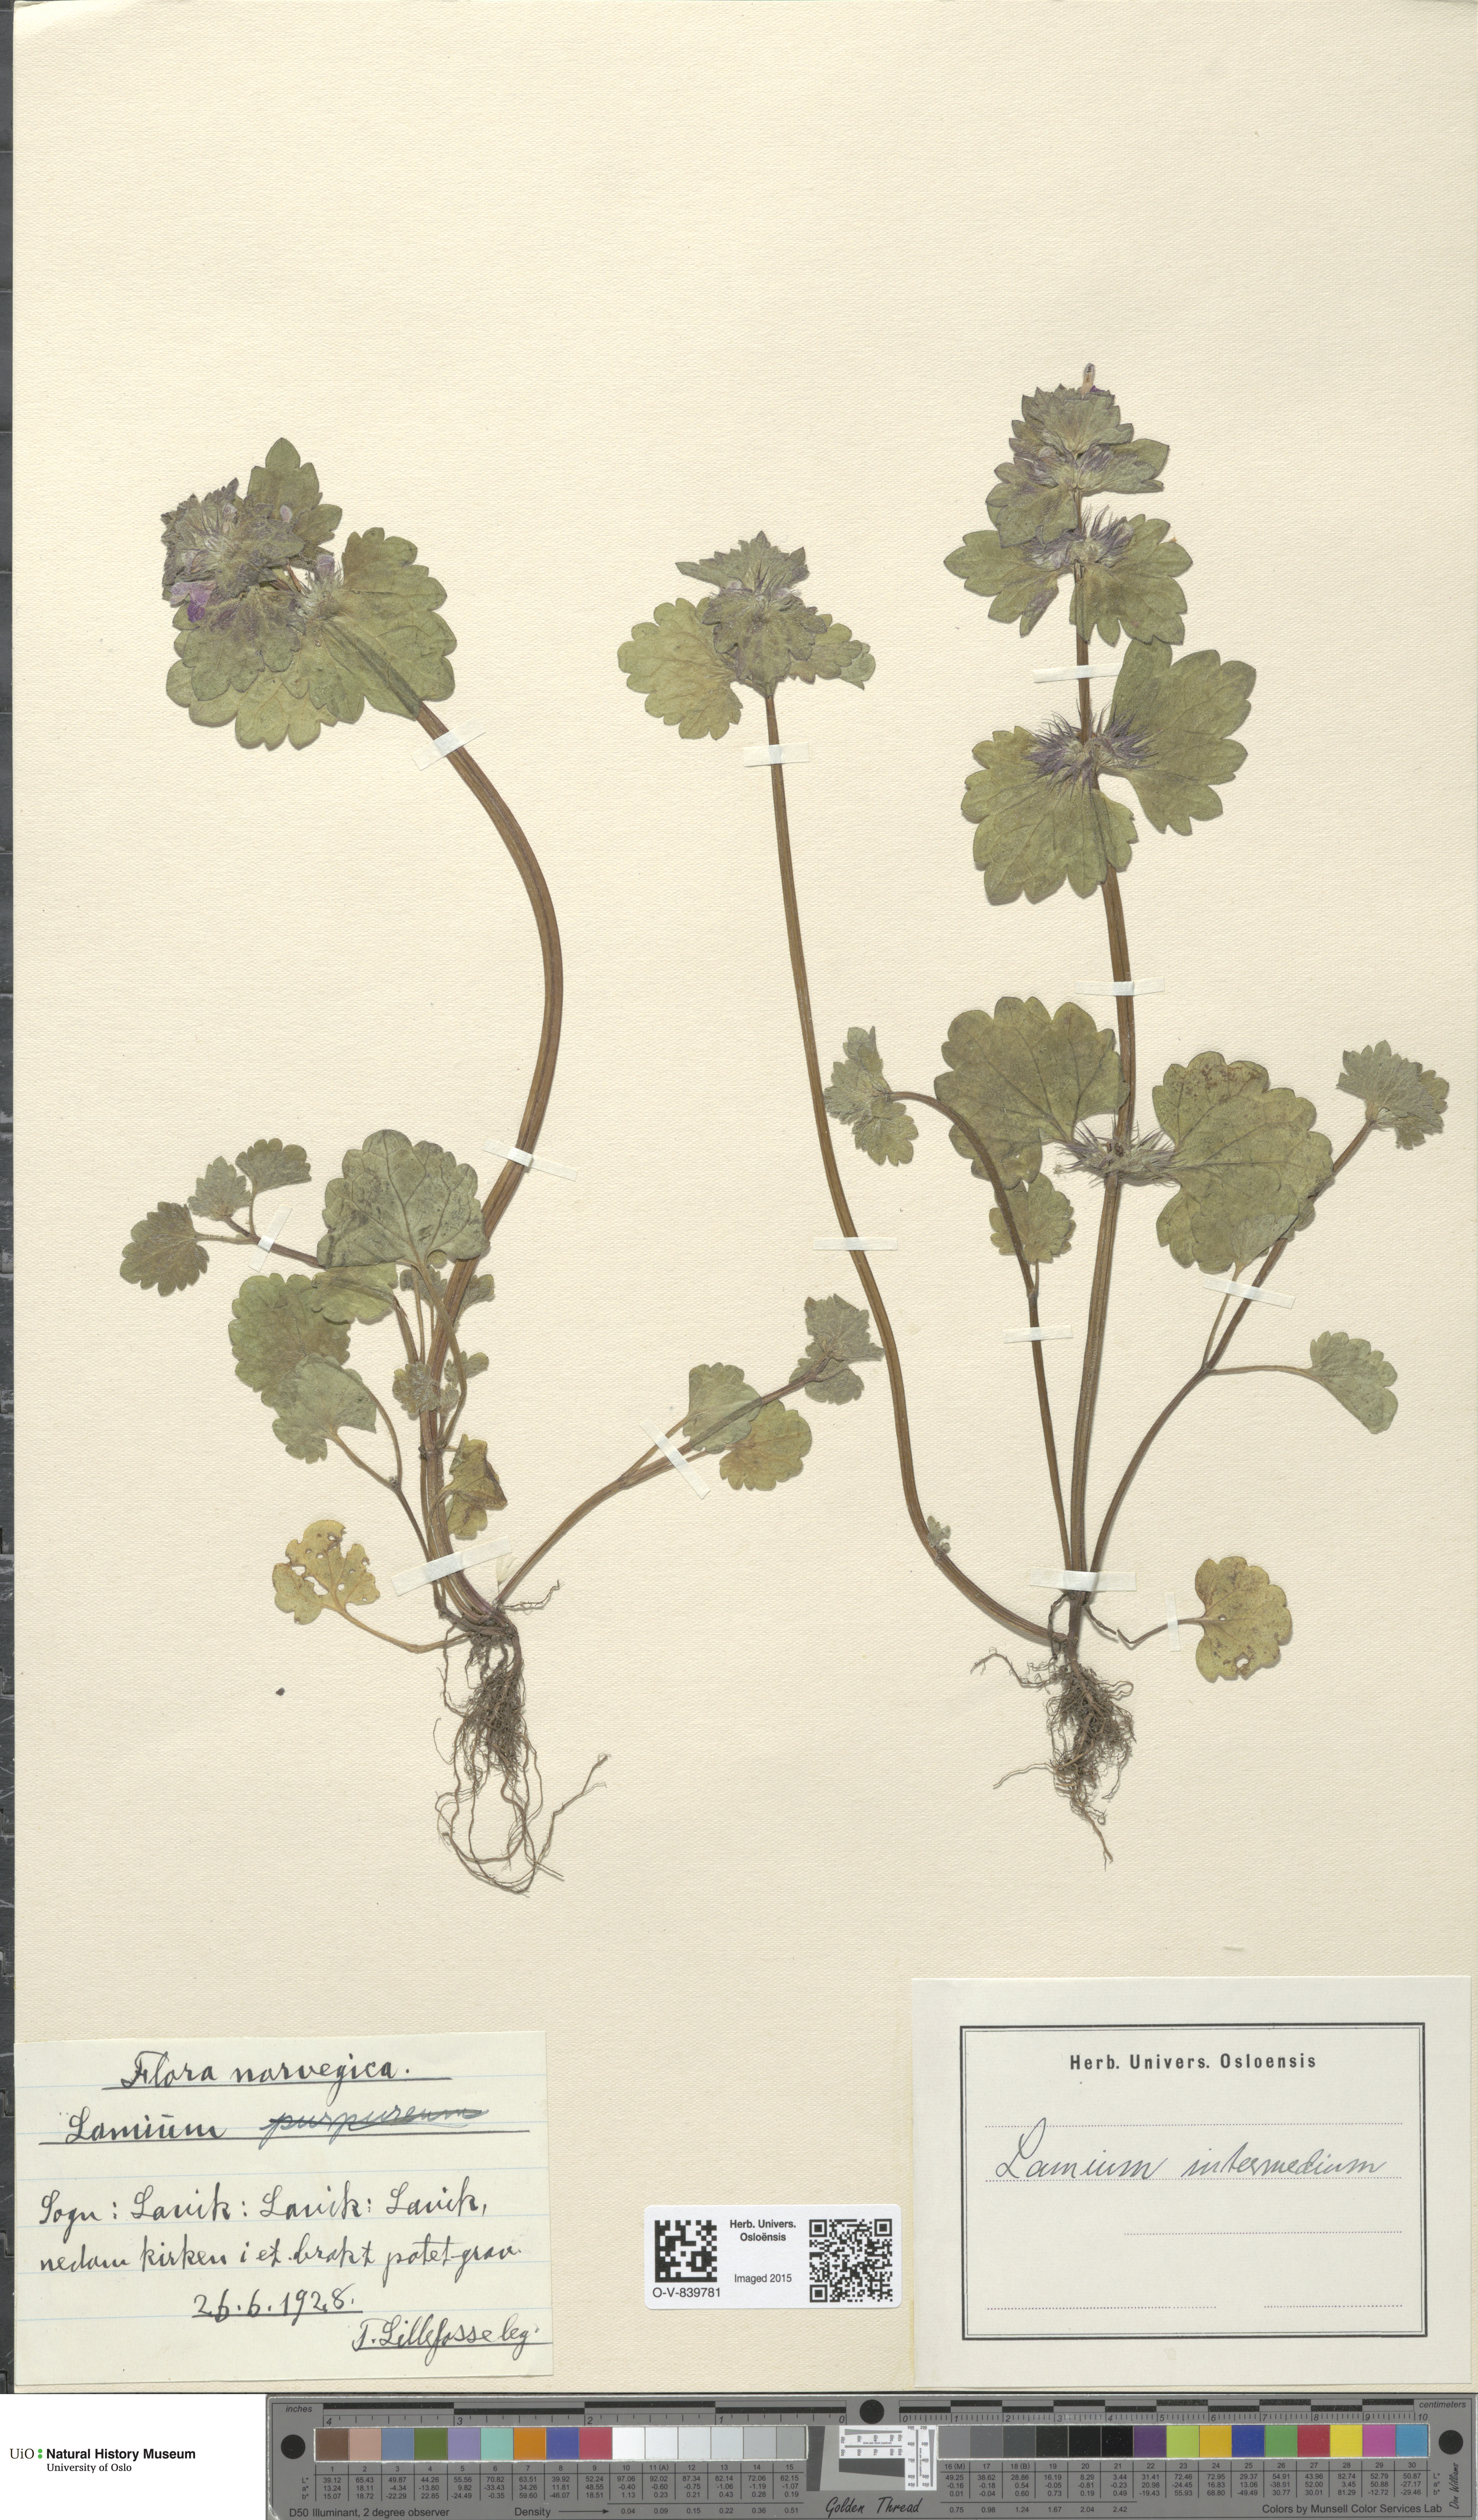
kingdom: Plantae
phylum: Tracheophyta
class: Magnoliopsida
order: Lamiales
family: Lamiaceae
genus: Lamium
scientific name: Lamium confertum
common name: Northern dead-nettle
